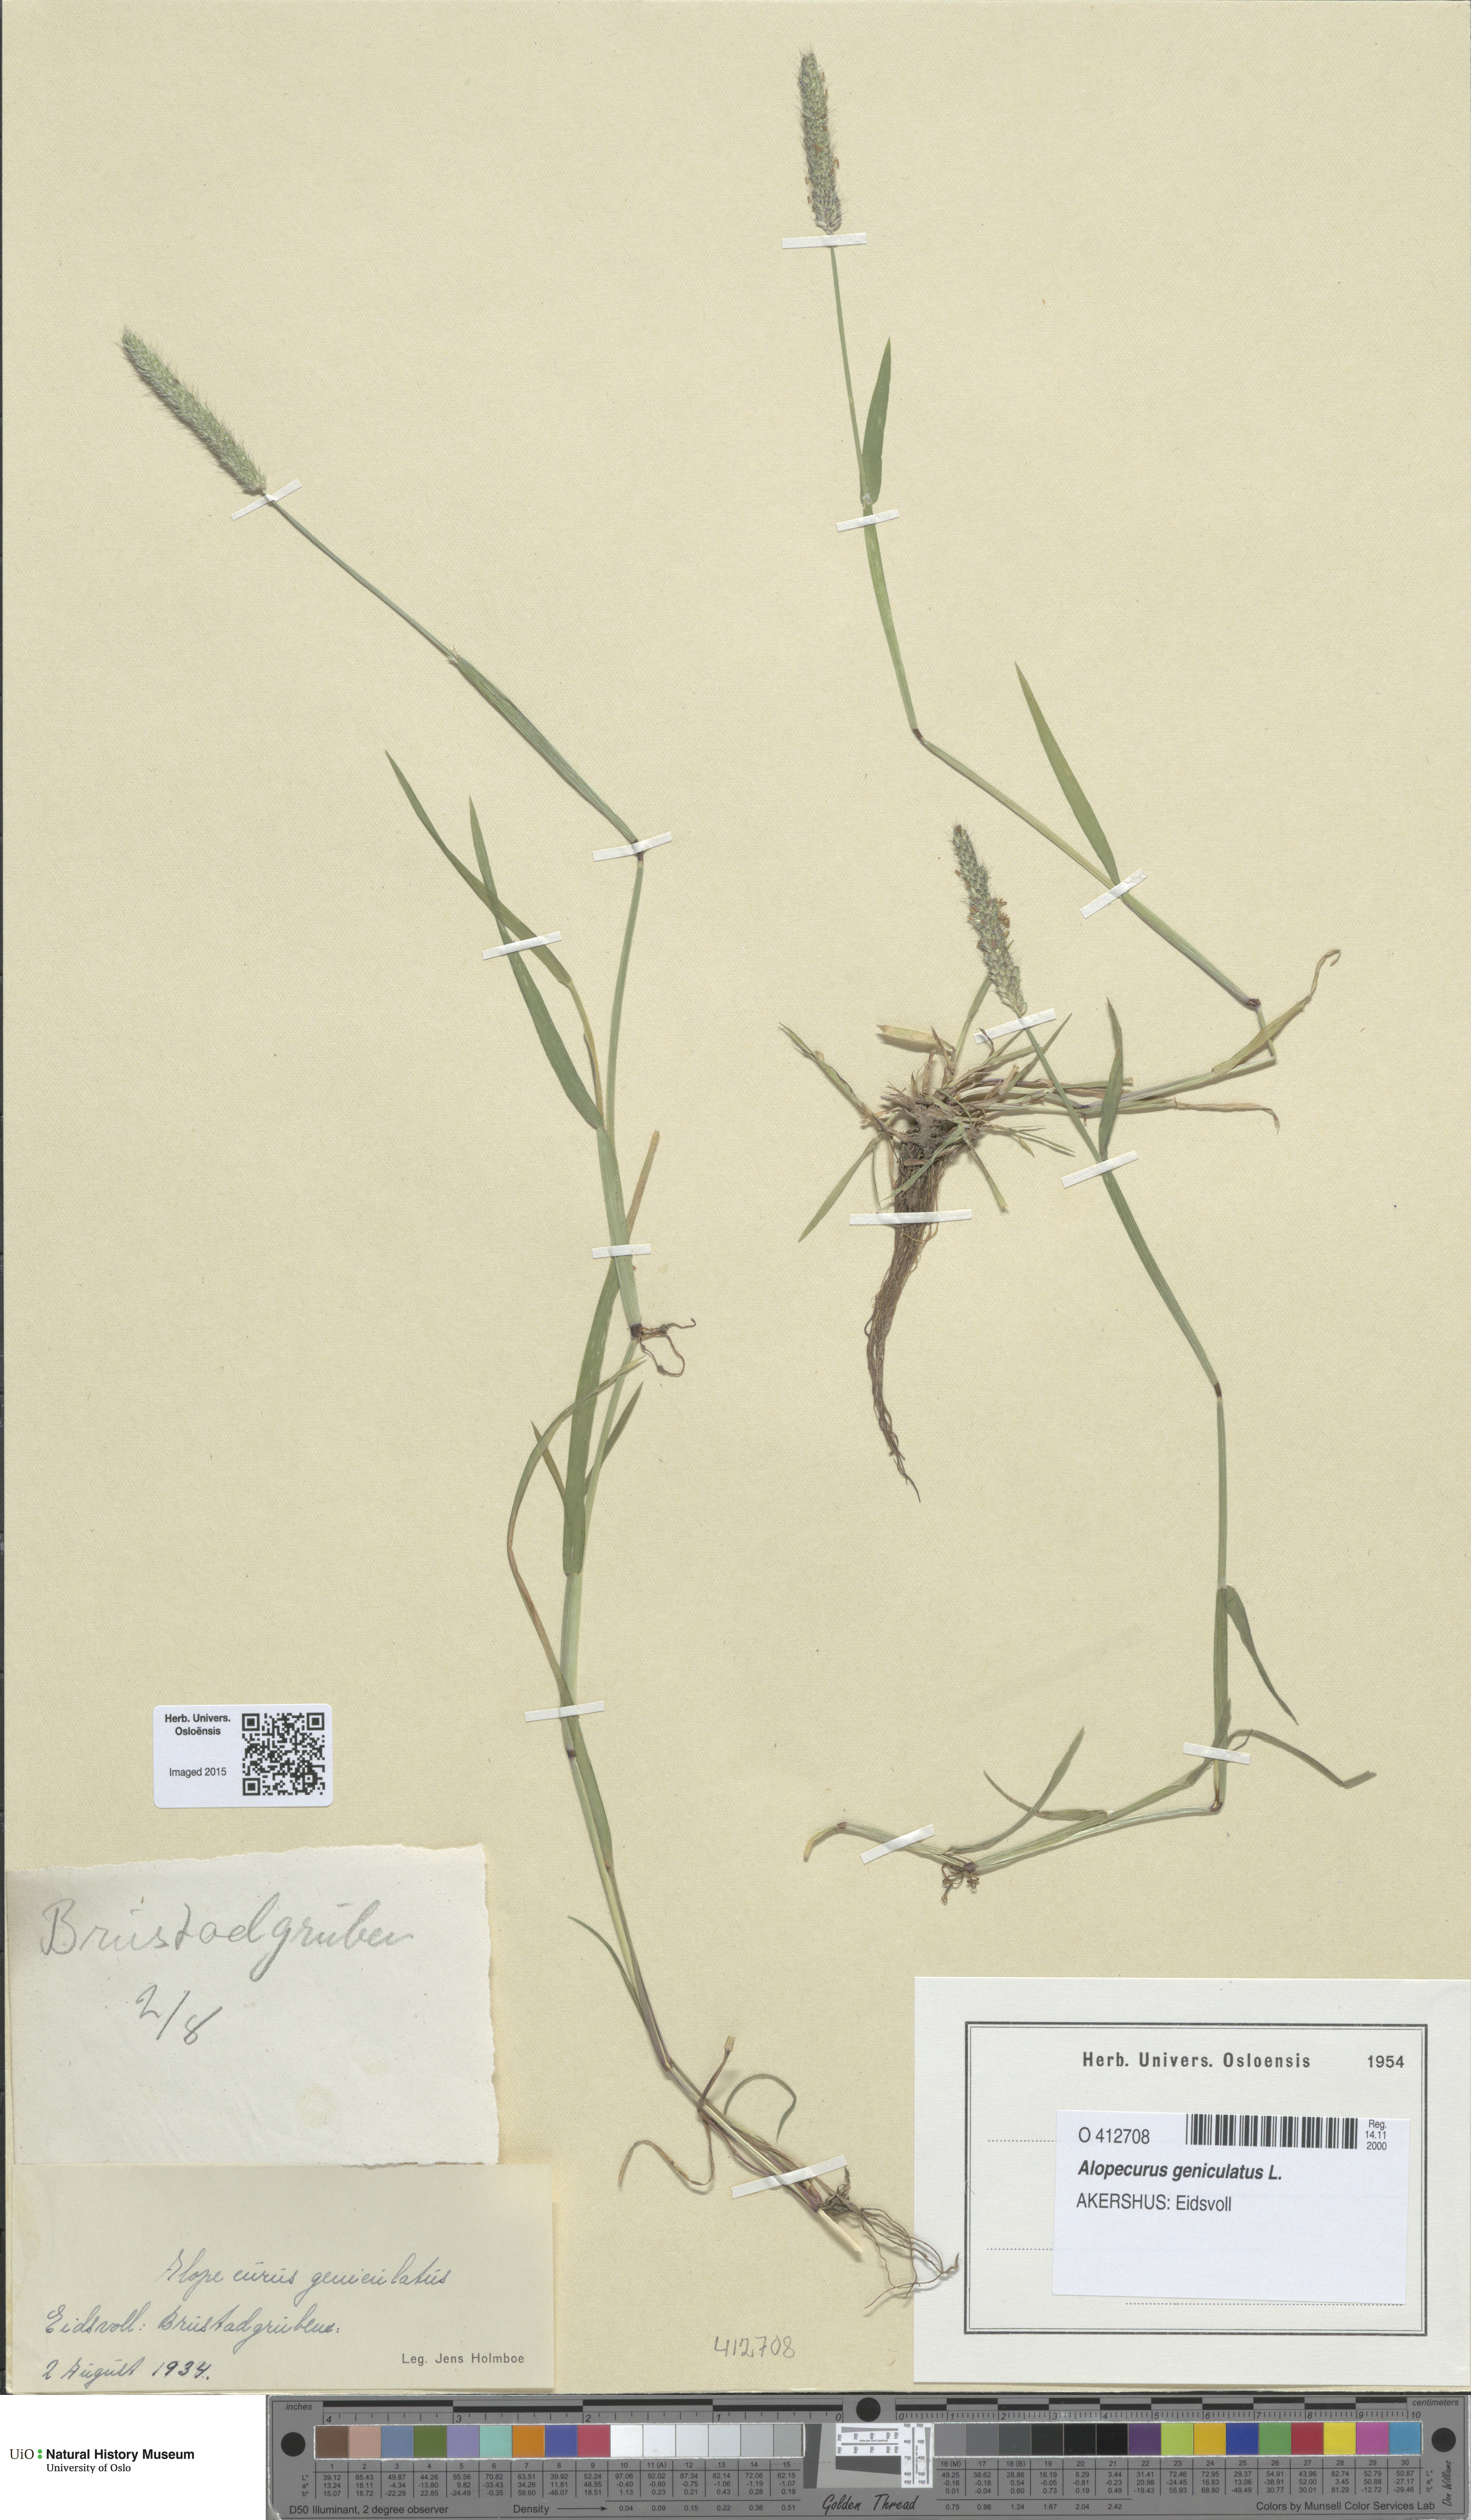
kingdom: Plantae
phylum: Tracheophyta
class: Liliopsida
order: Poales
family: Poaceae
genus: Alopecurus
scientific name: Alopecurus geniculatus
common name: Water foxtail
